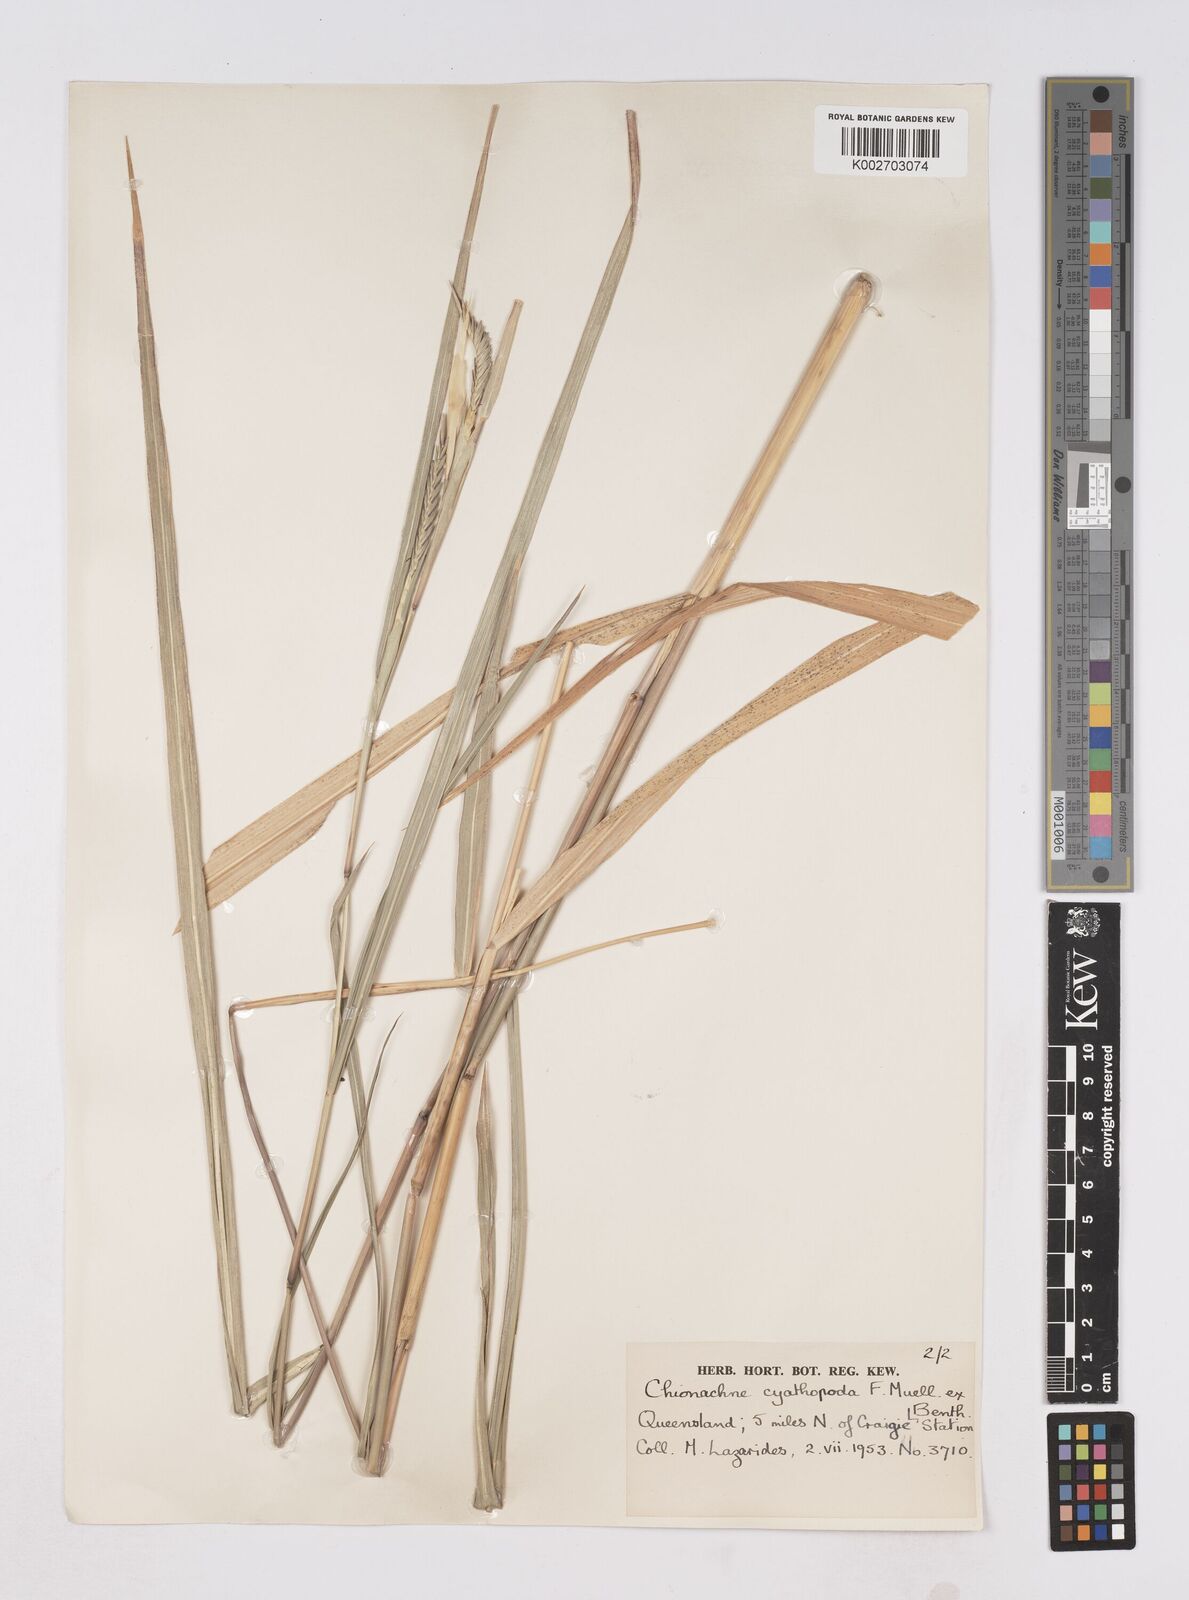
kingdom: Plantae
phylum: Tracheophyta
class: Liliopsida
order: Poales
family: Poaceae
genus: Polytoca
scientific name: Polytoca cyathopoda
